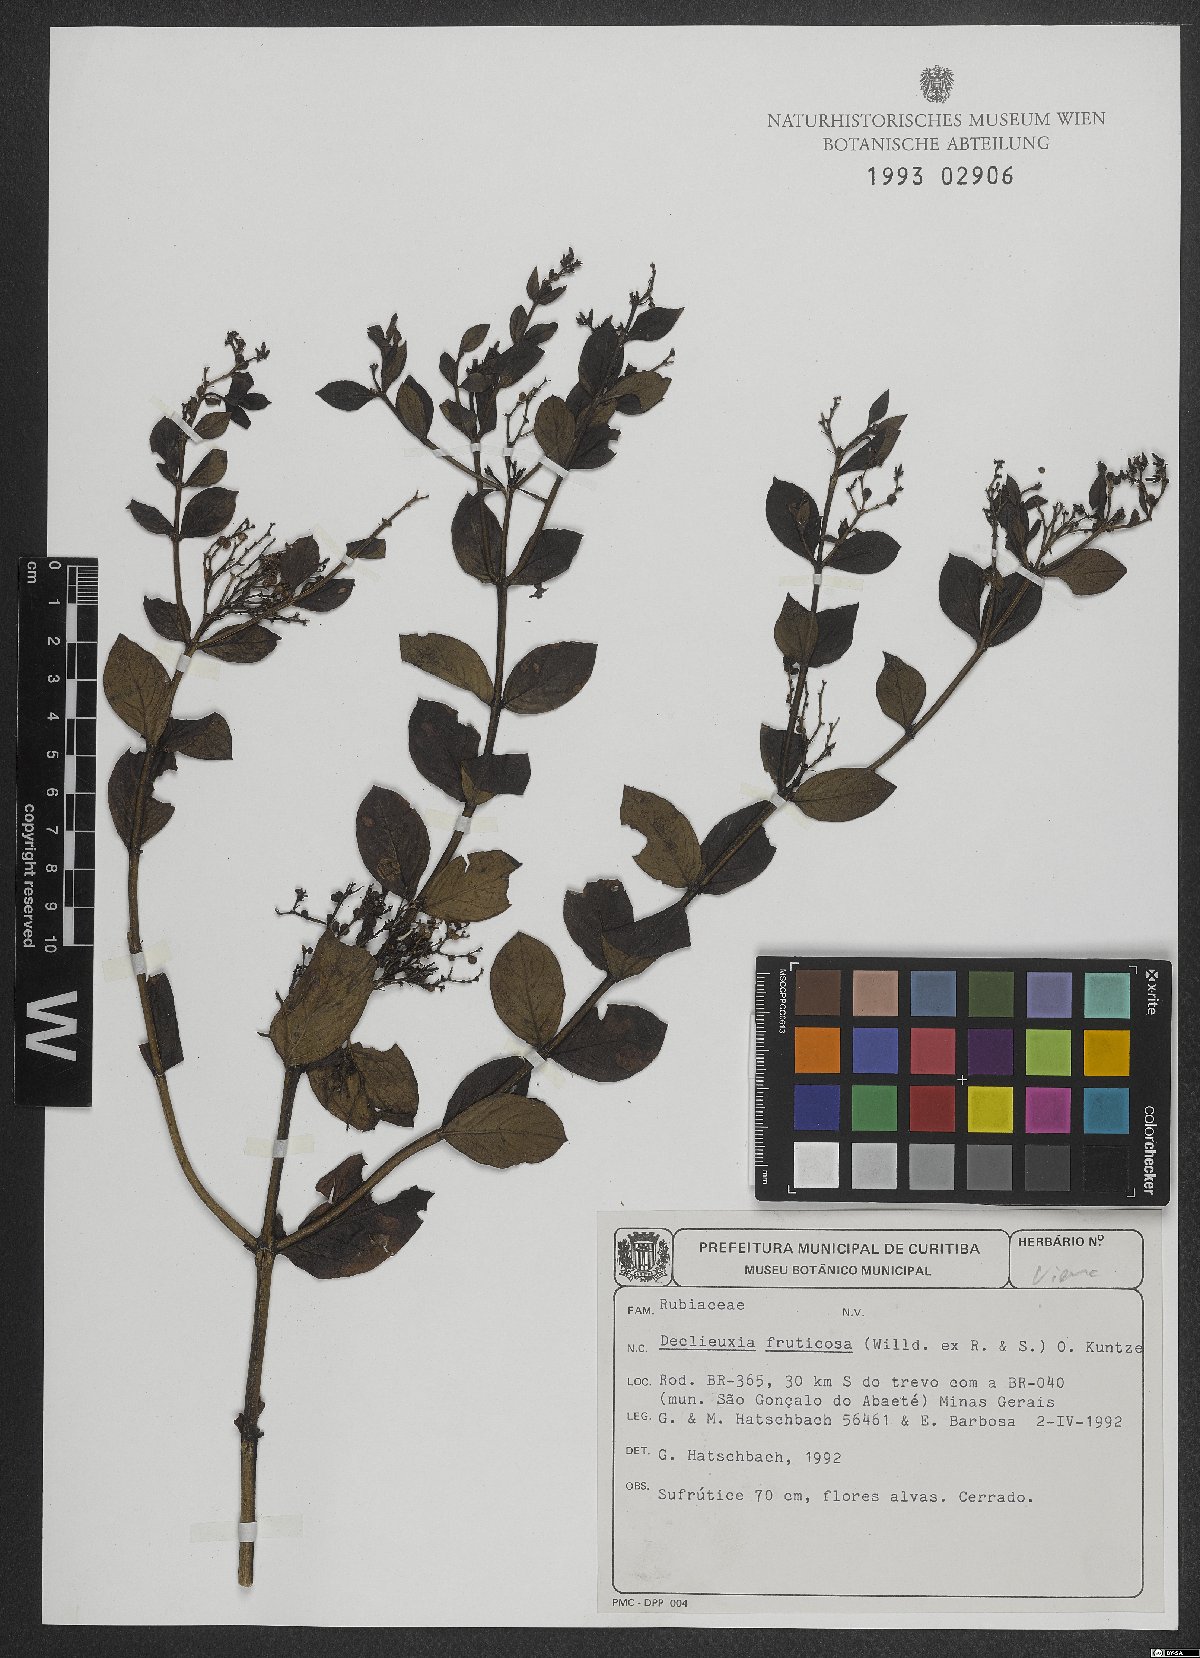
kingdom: Plantae
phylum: Tracheophyta
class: Magnoliopsida
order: Gentianales
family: Rubiaceae
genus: Declieuxia
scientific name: Declieuxia fruticosa
